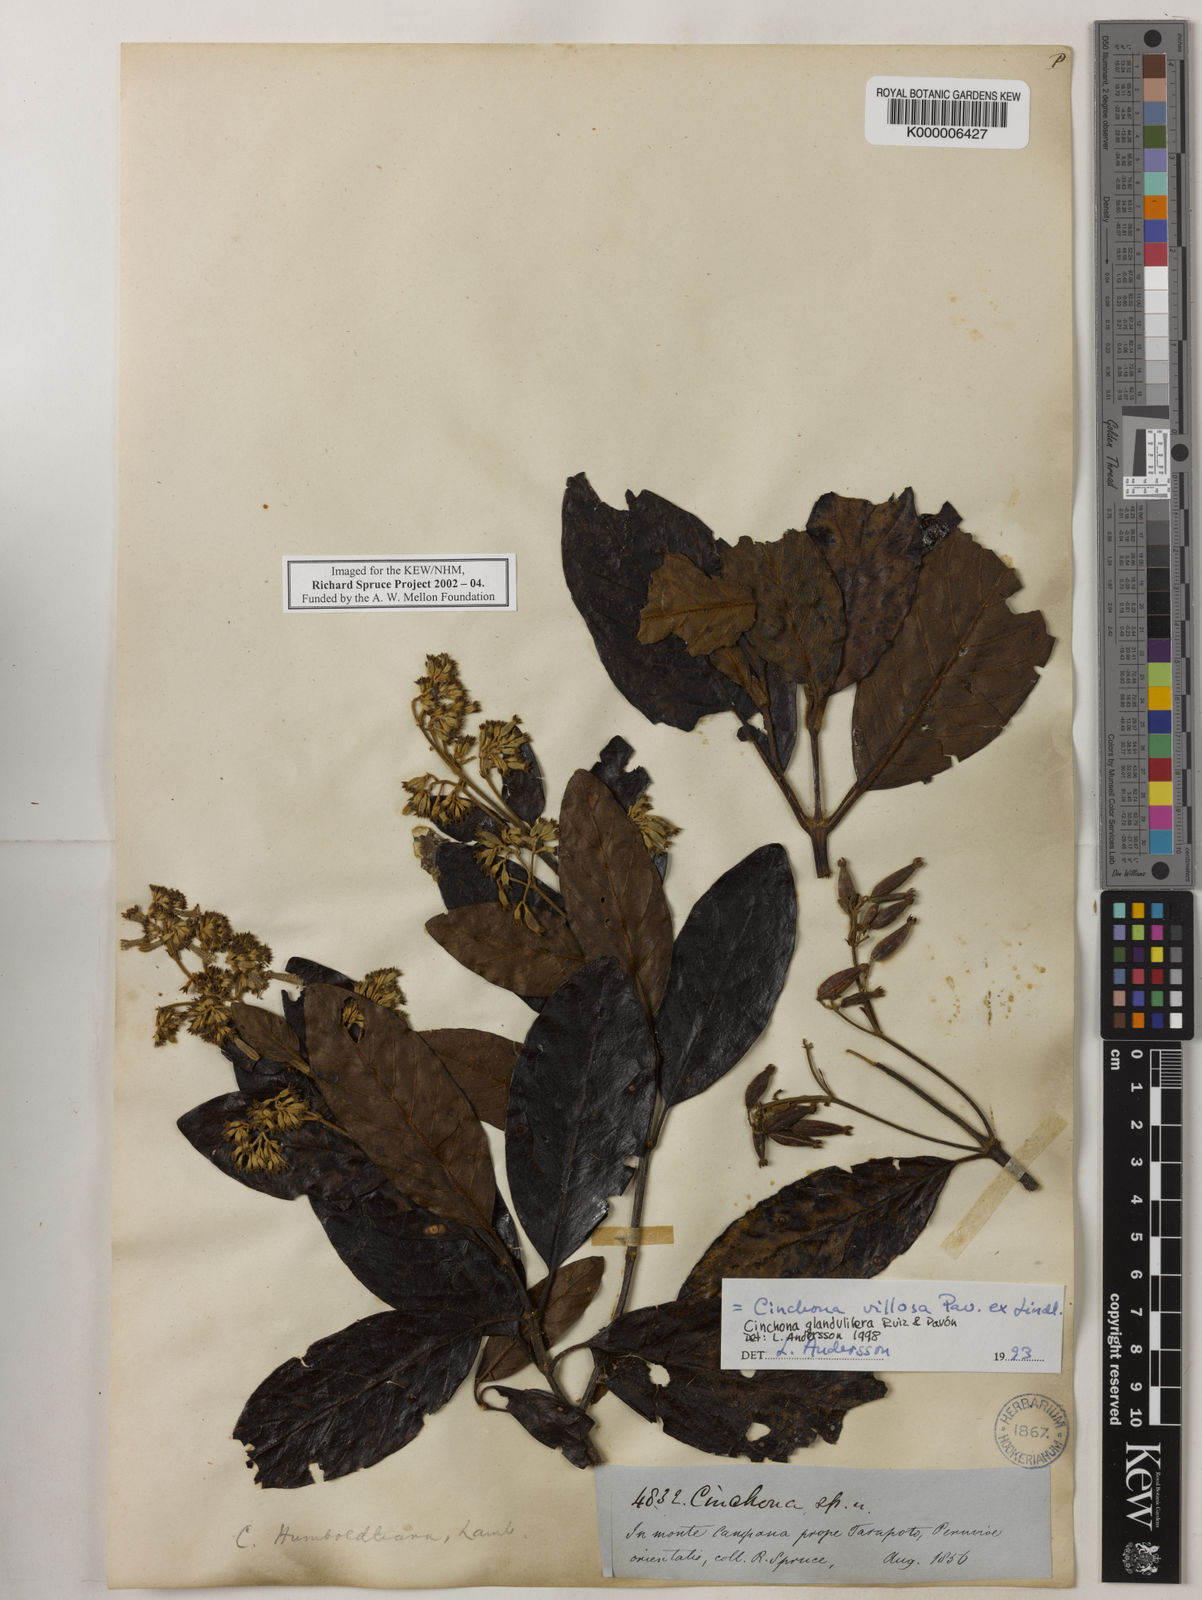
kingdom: Plantae
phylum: Tracheophyta
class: Magnoliopsida
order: Gentianales
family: Rubiaceae
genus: Cinchona
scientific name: Cinchona villosa
